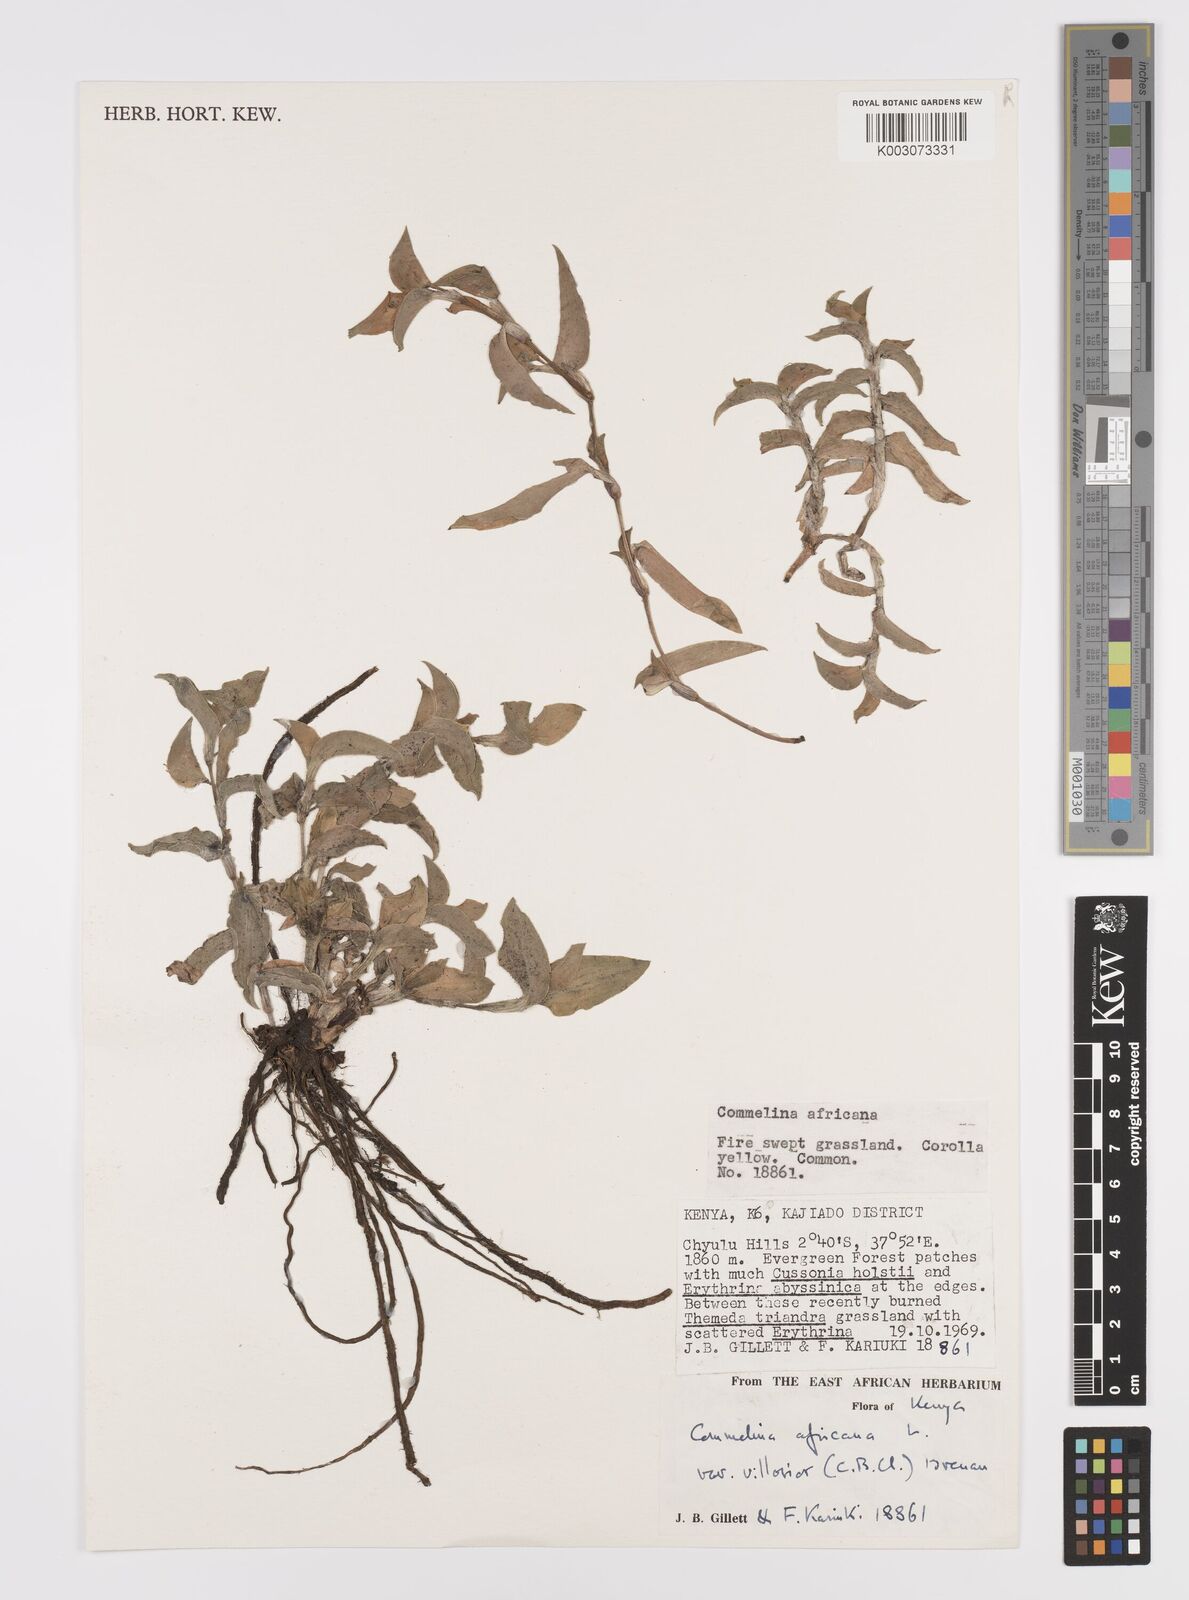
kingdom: Plantae
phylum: Tracheophyta
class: Liliopsida
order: Commelinales
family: Commelinaceae
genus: Commelina
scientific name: Commelina africana
